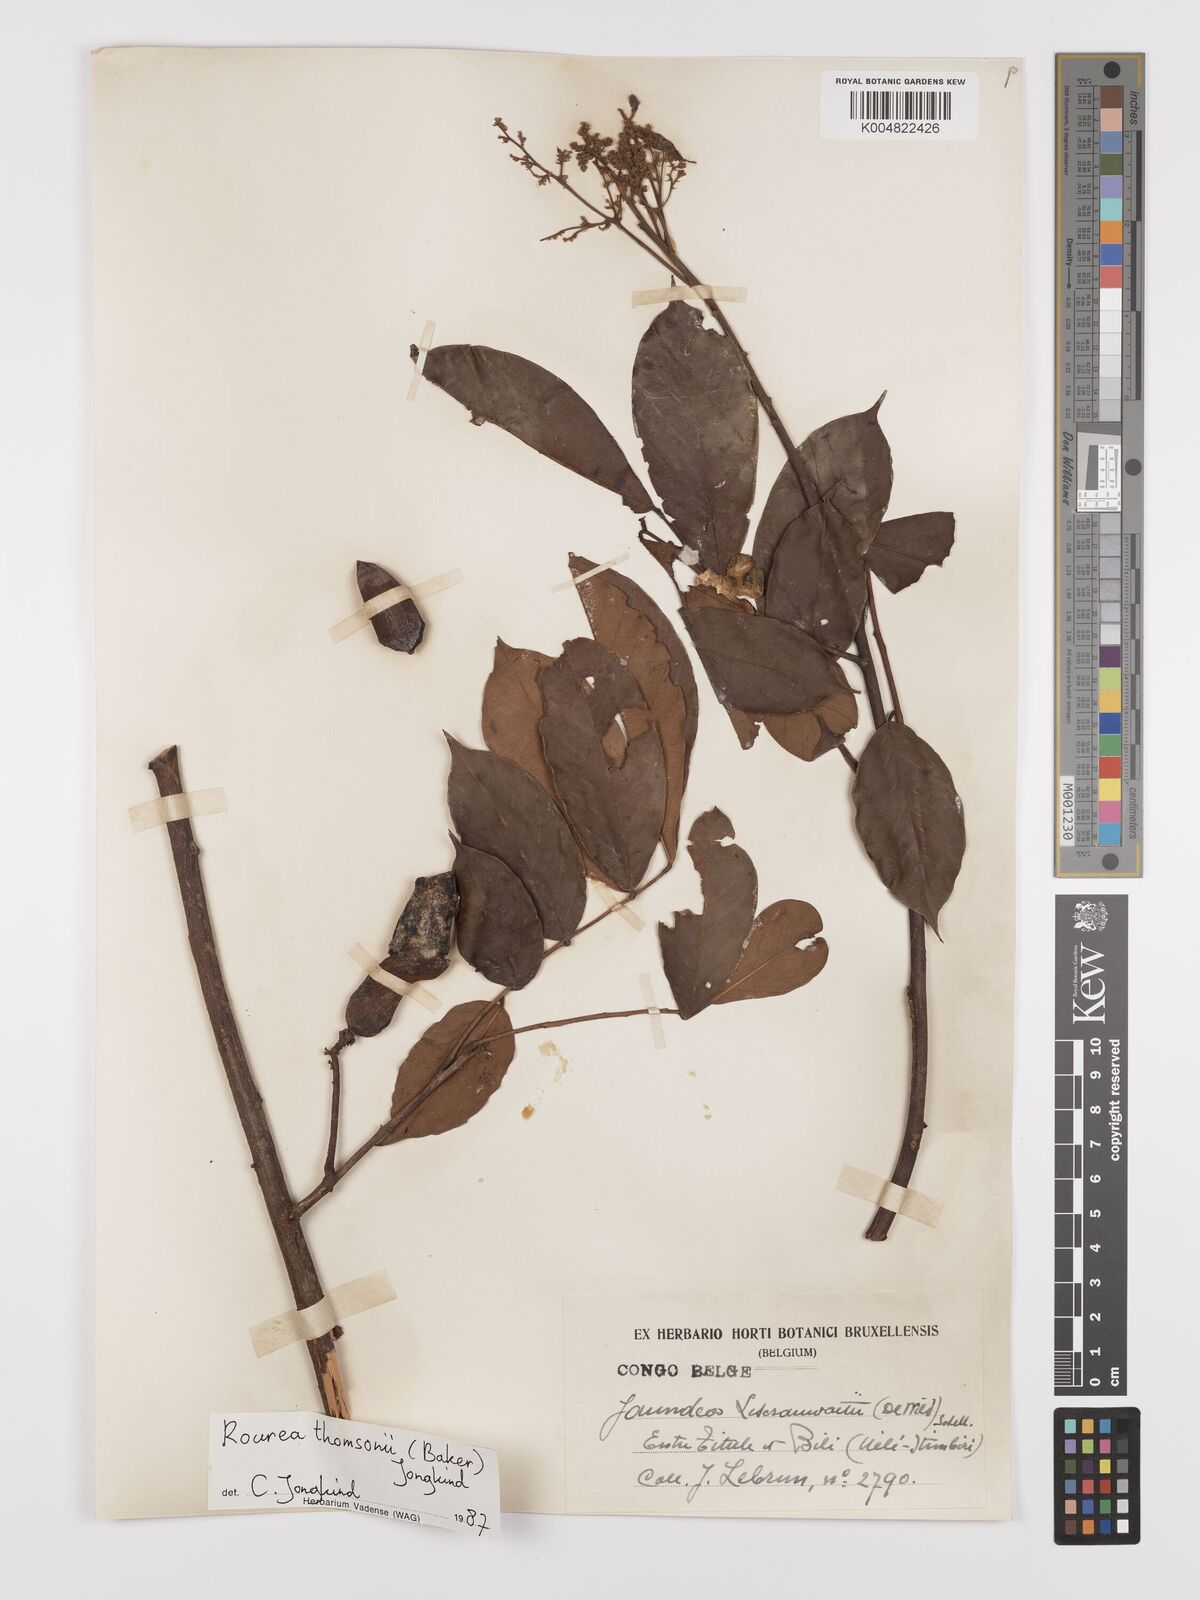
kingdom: Plantae
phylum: Tracheophyta
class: Magnoliopsida
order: Oxalidales
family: Connaraceae
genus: Rourea
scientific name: Rourea pubescens
